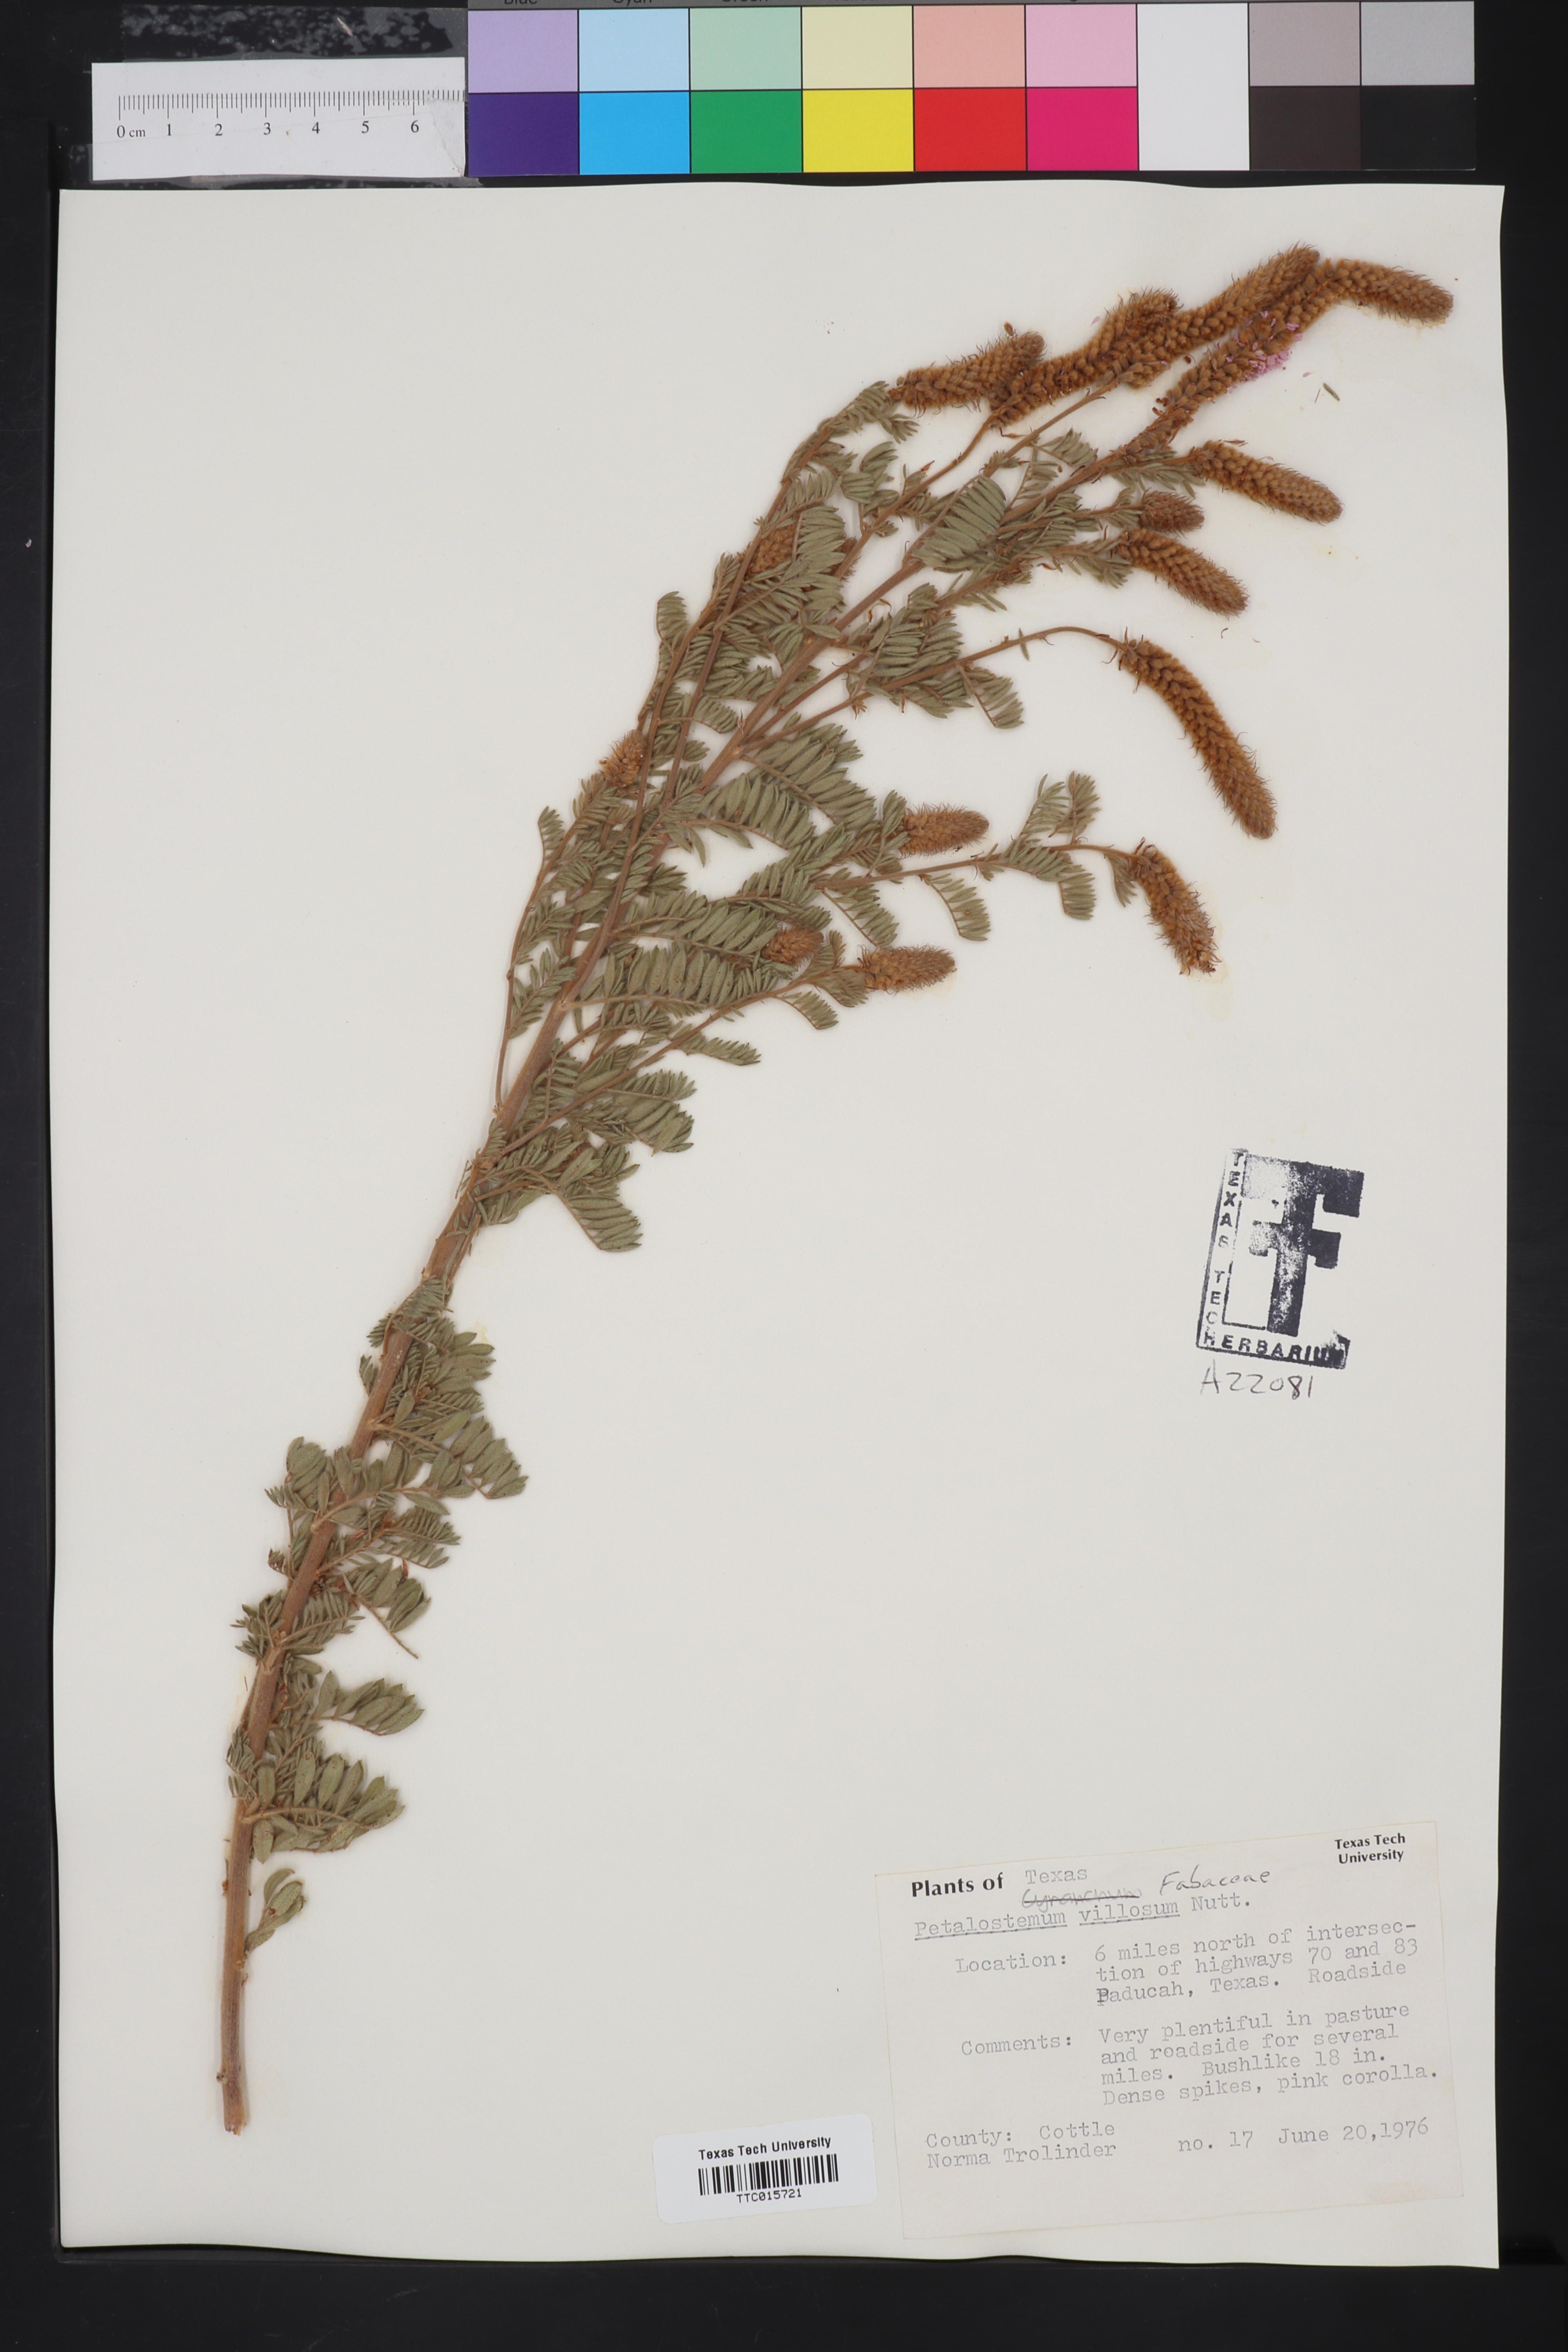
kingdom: Plantae
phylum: Tracheophyta
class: Magnoliopsida
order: Fabales
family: Fabaceae
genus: Petalostemum
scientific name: Petalostemum
